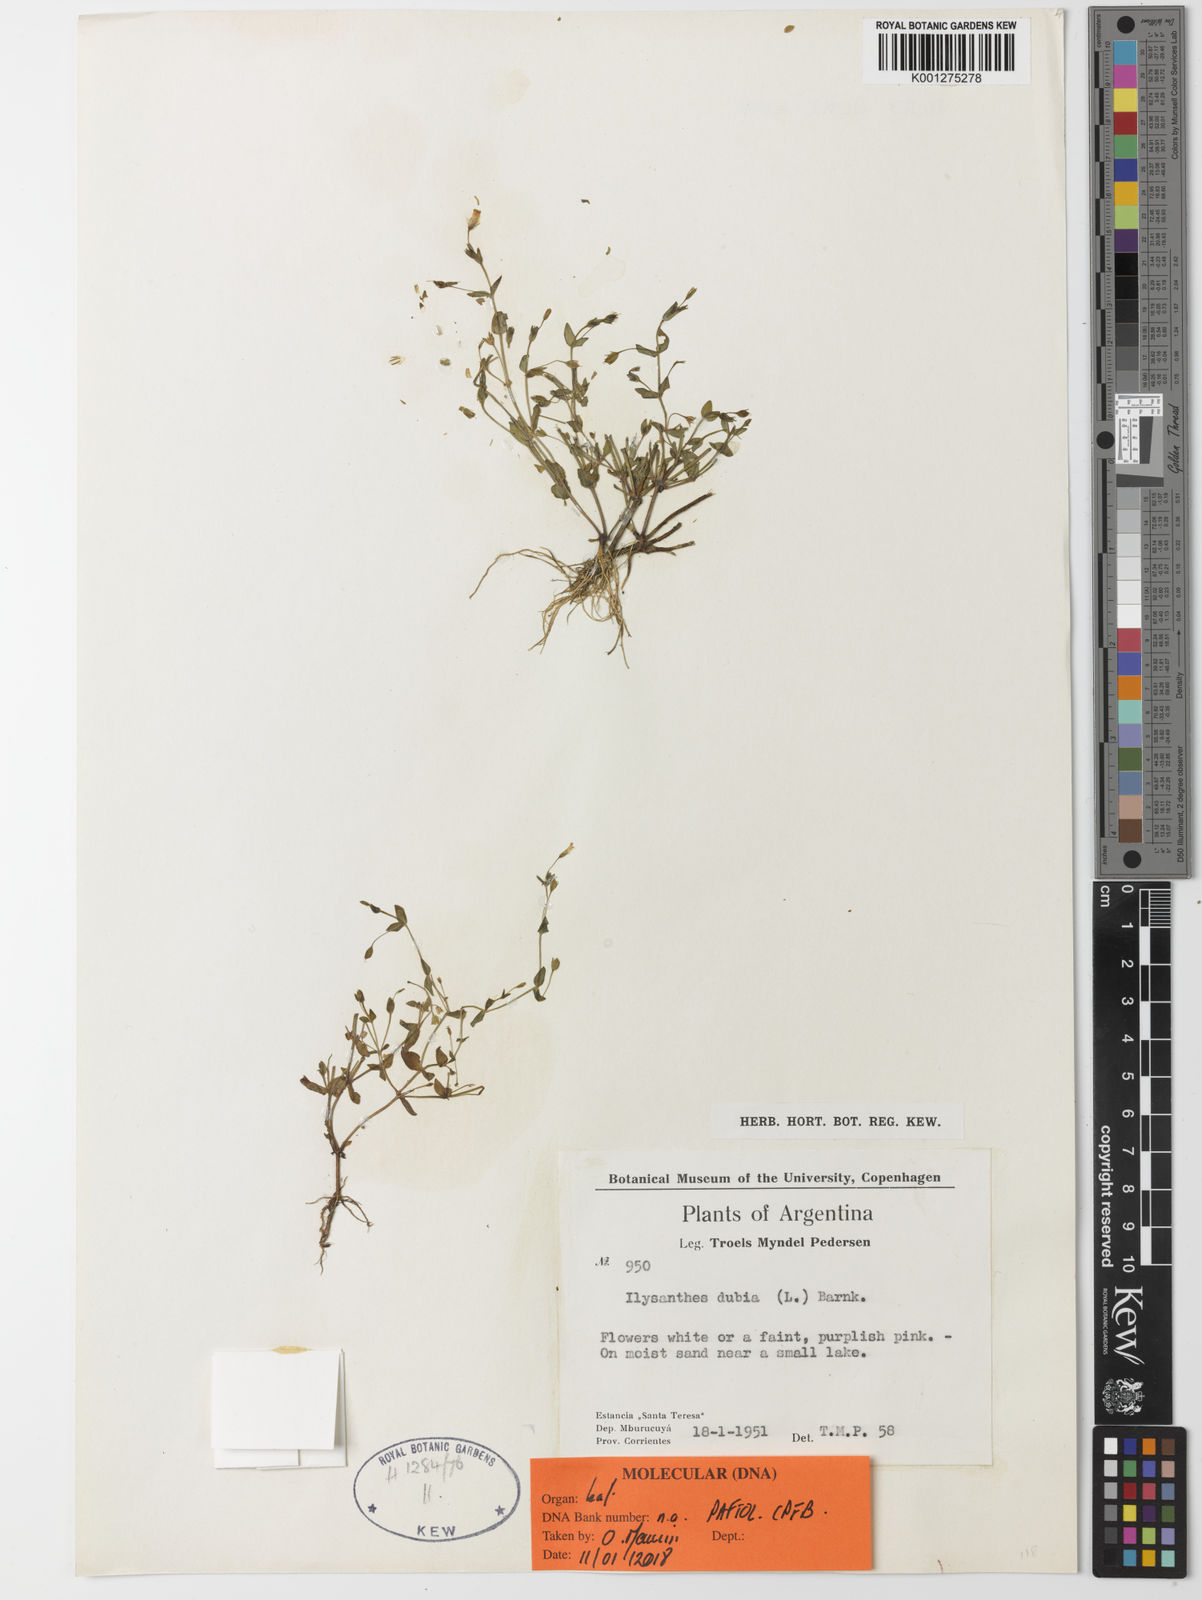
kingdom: Plantae
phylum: Tracheophyta
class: Magnoliopsida
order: Lamiales
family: Linderniaceae
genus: Lindernia
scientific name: Lindernia dubia
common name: Annual false pimpernel
